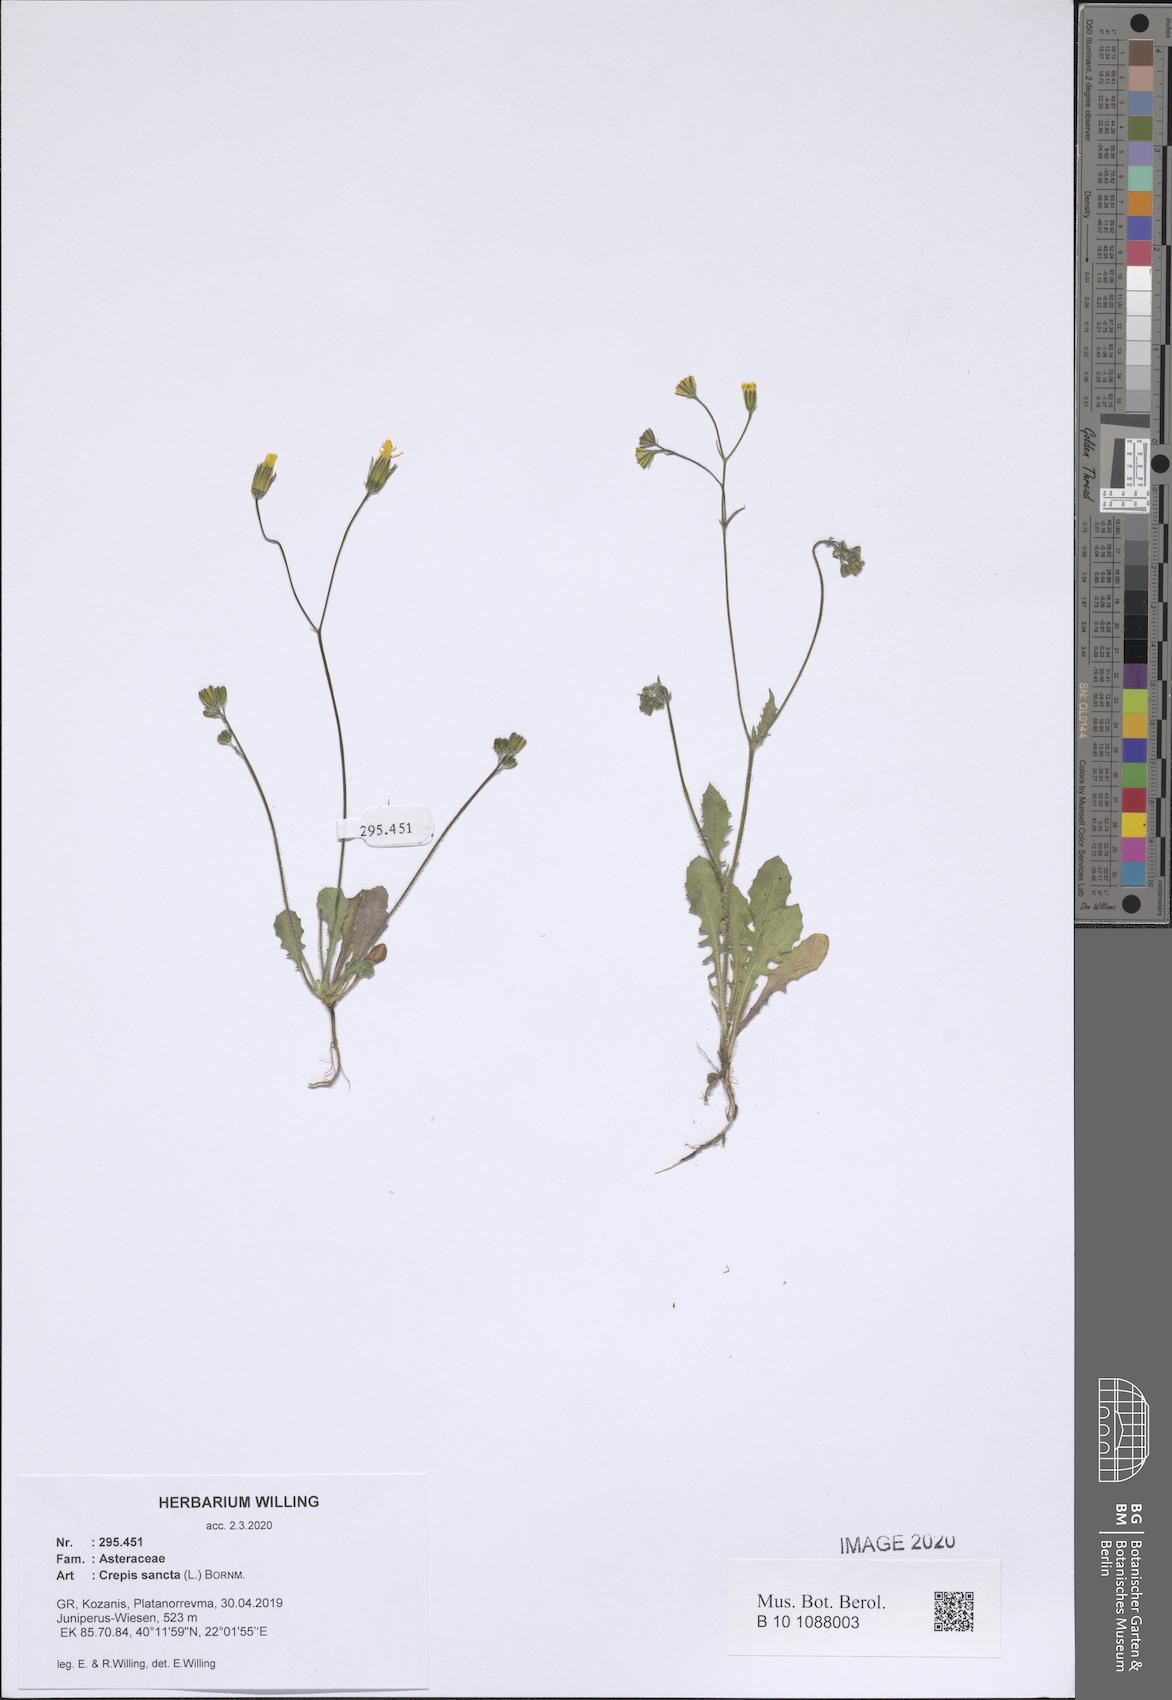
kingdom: Plantae
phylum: Tracheophyta
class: Magnoliopsida
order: Asterales
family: Asteraceae
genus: Crepis
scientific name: Crepis sancta
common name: Hawk's-beard
